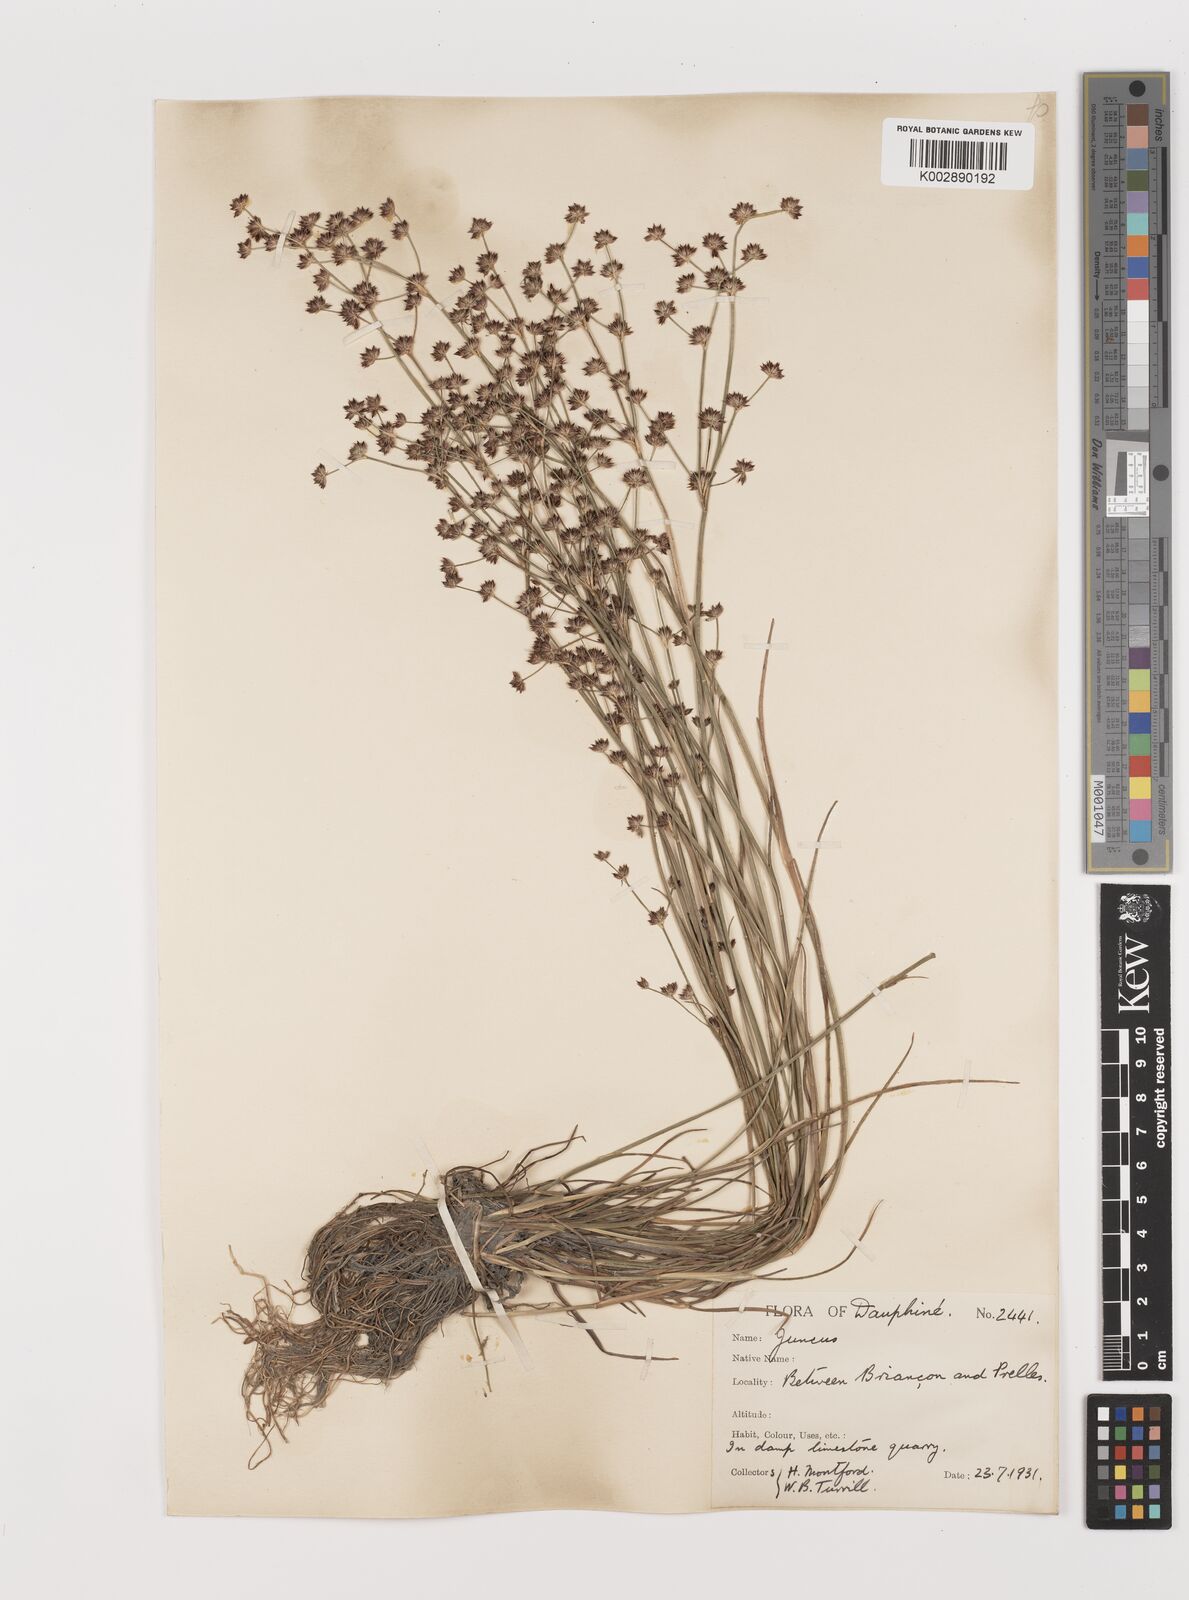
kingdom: Plantae
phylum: Tracheophyta
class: Liliopsida
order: Poales
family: Juncaceae
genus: Juncus
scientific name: Juncus articulatus
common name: Jointed rush
